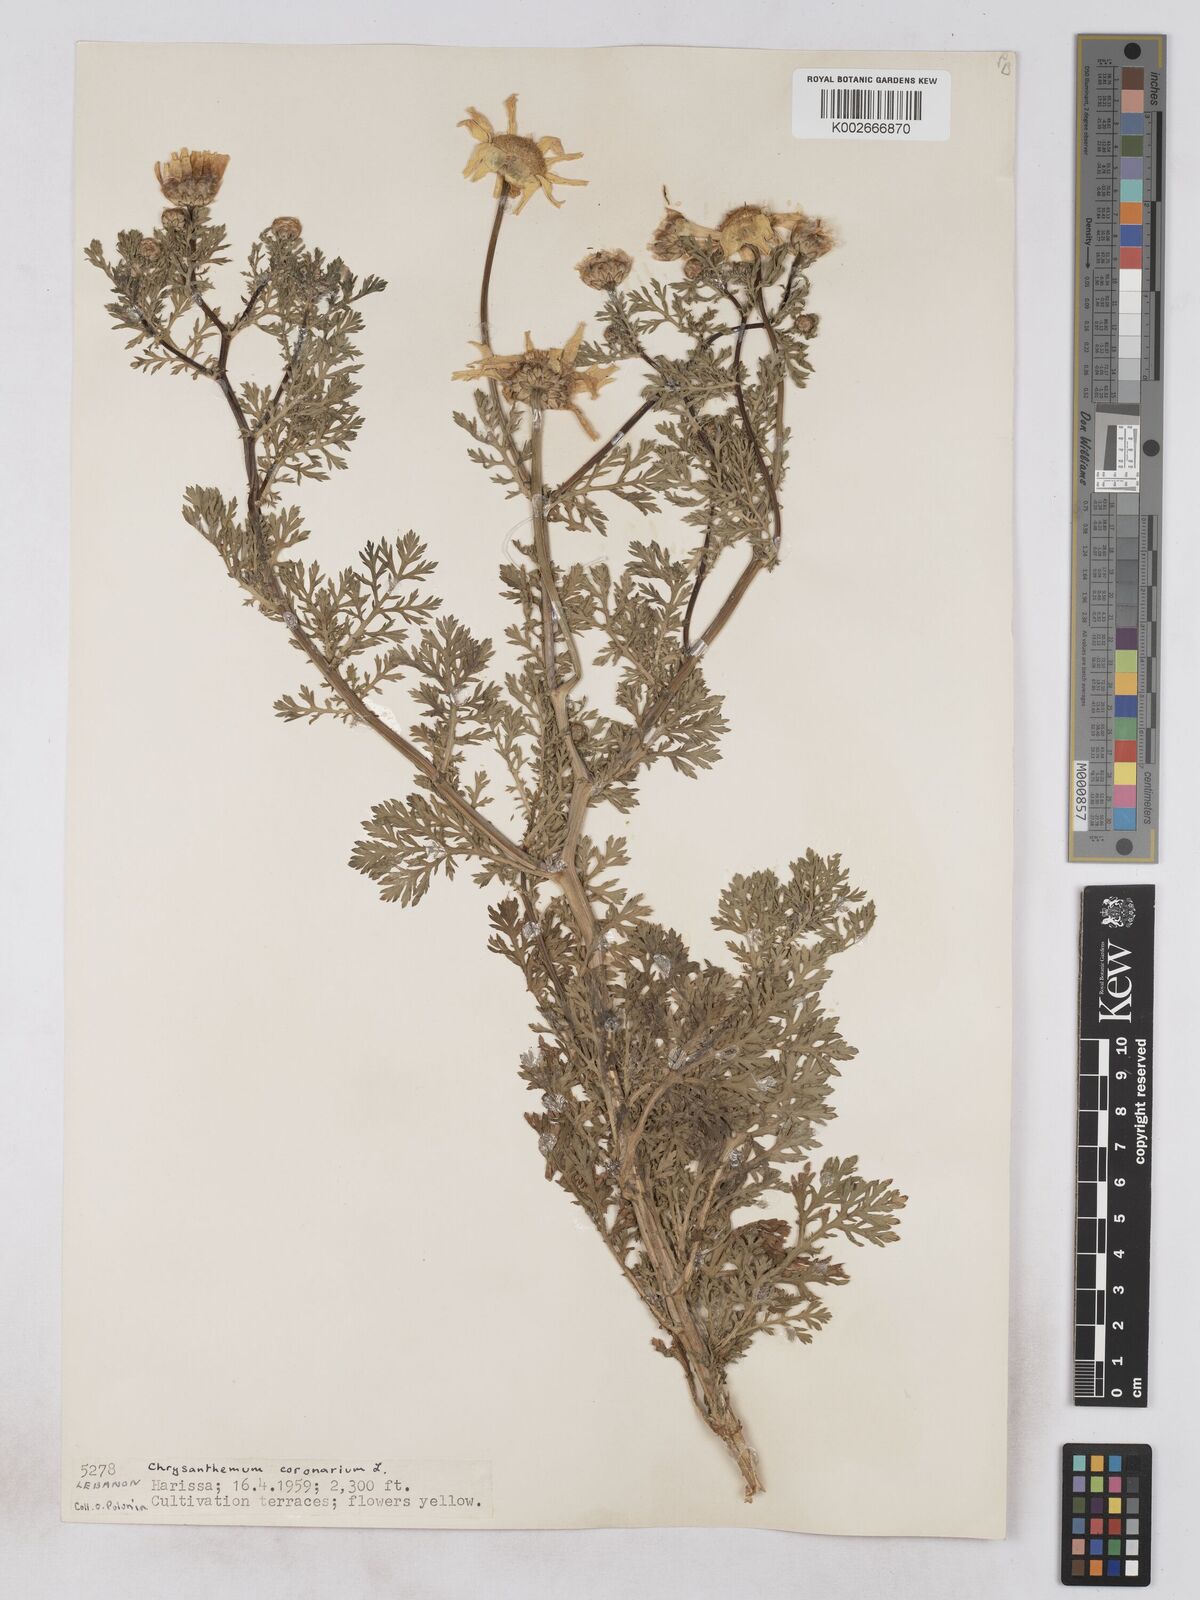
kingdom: Plantae
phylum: Tracheophyta
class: Magnoliopsida
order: Asterales
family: Asteraceae
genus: Glebionis
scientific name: Glebionis coronaria
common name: Crowndaisy
